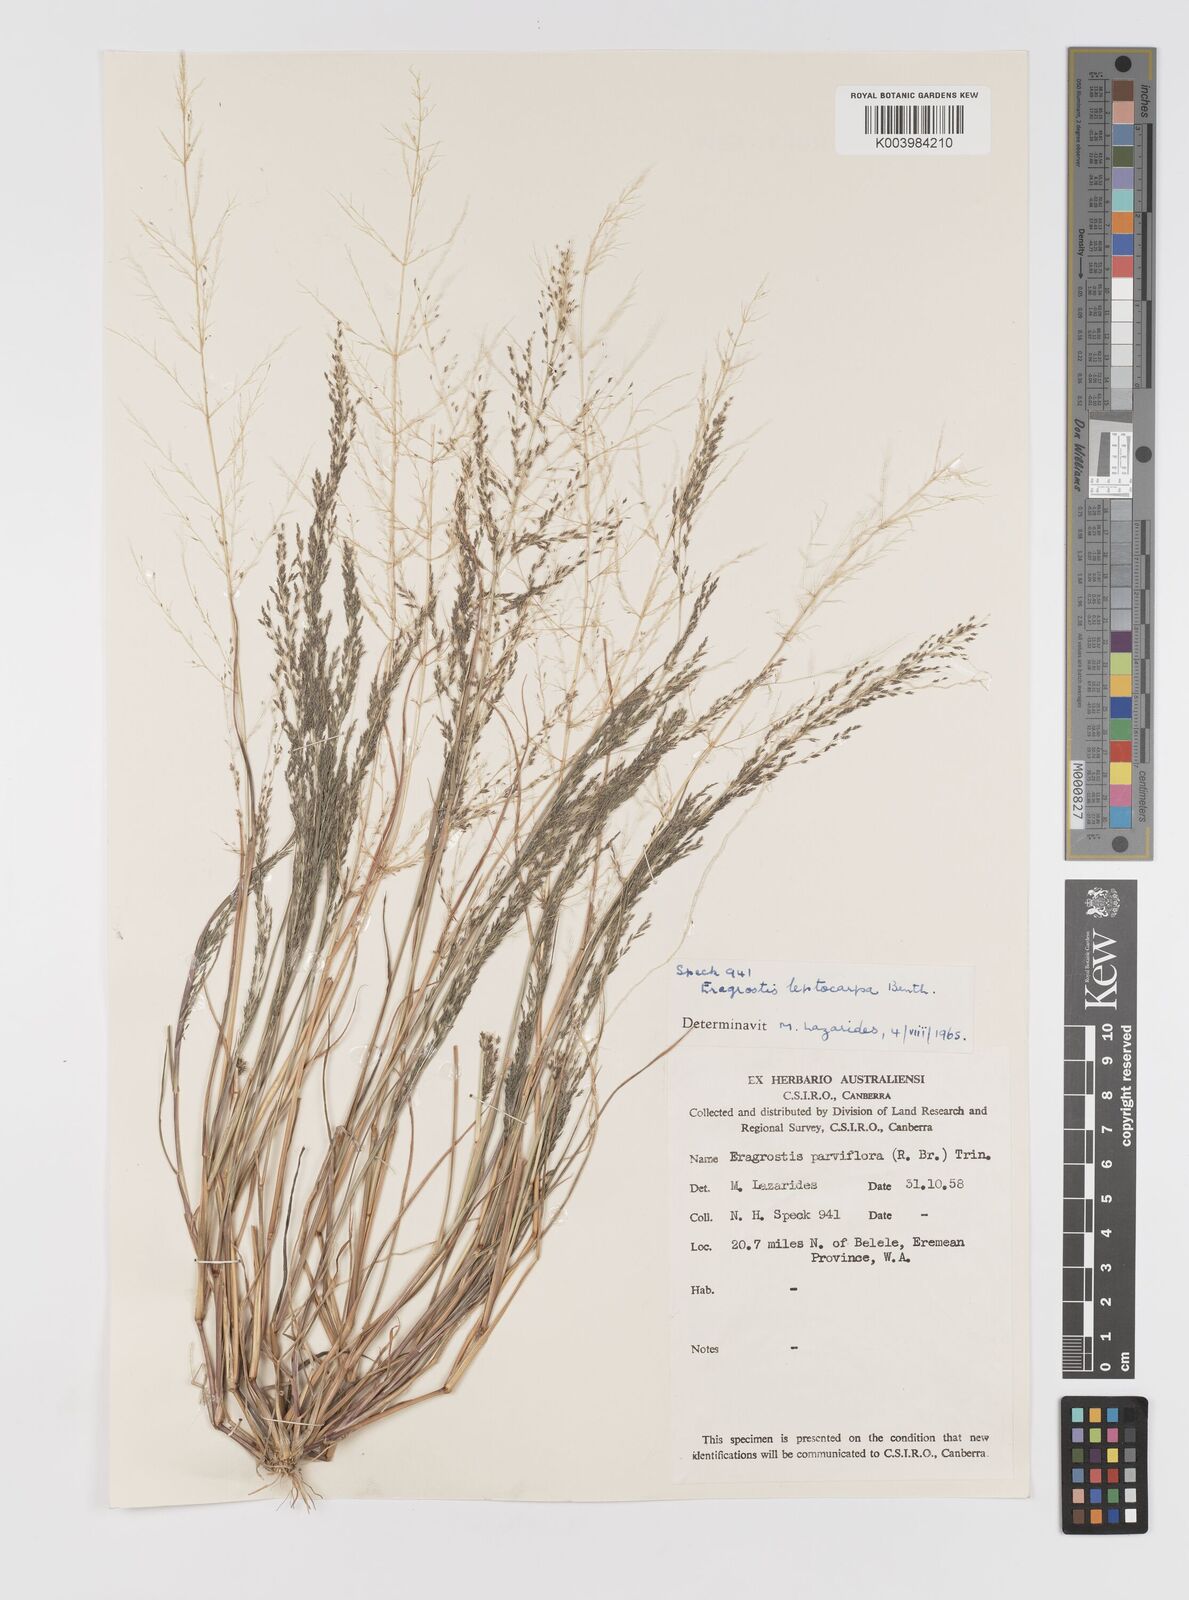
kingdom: Plantae
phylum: Tracheophyta
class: Liliopsida
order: Poales
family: Poaceae
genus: Eragrostis
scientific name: Eragrostis leptocarpa
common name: Drooping love grass
